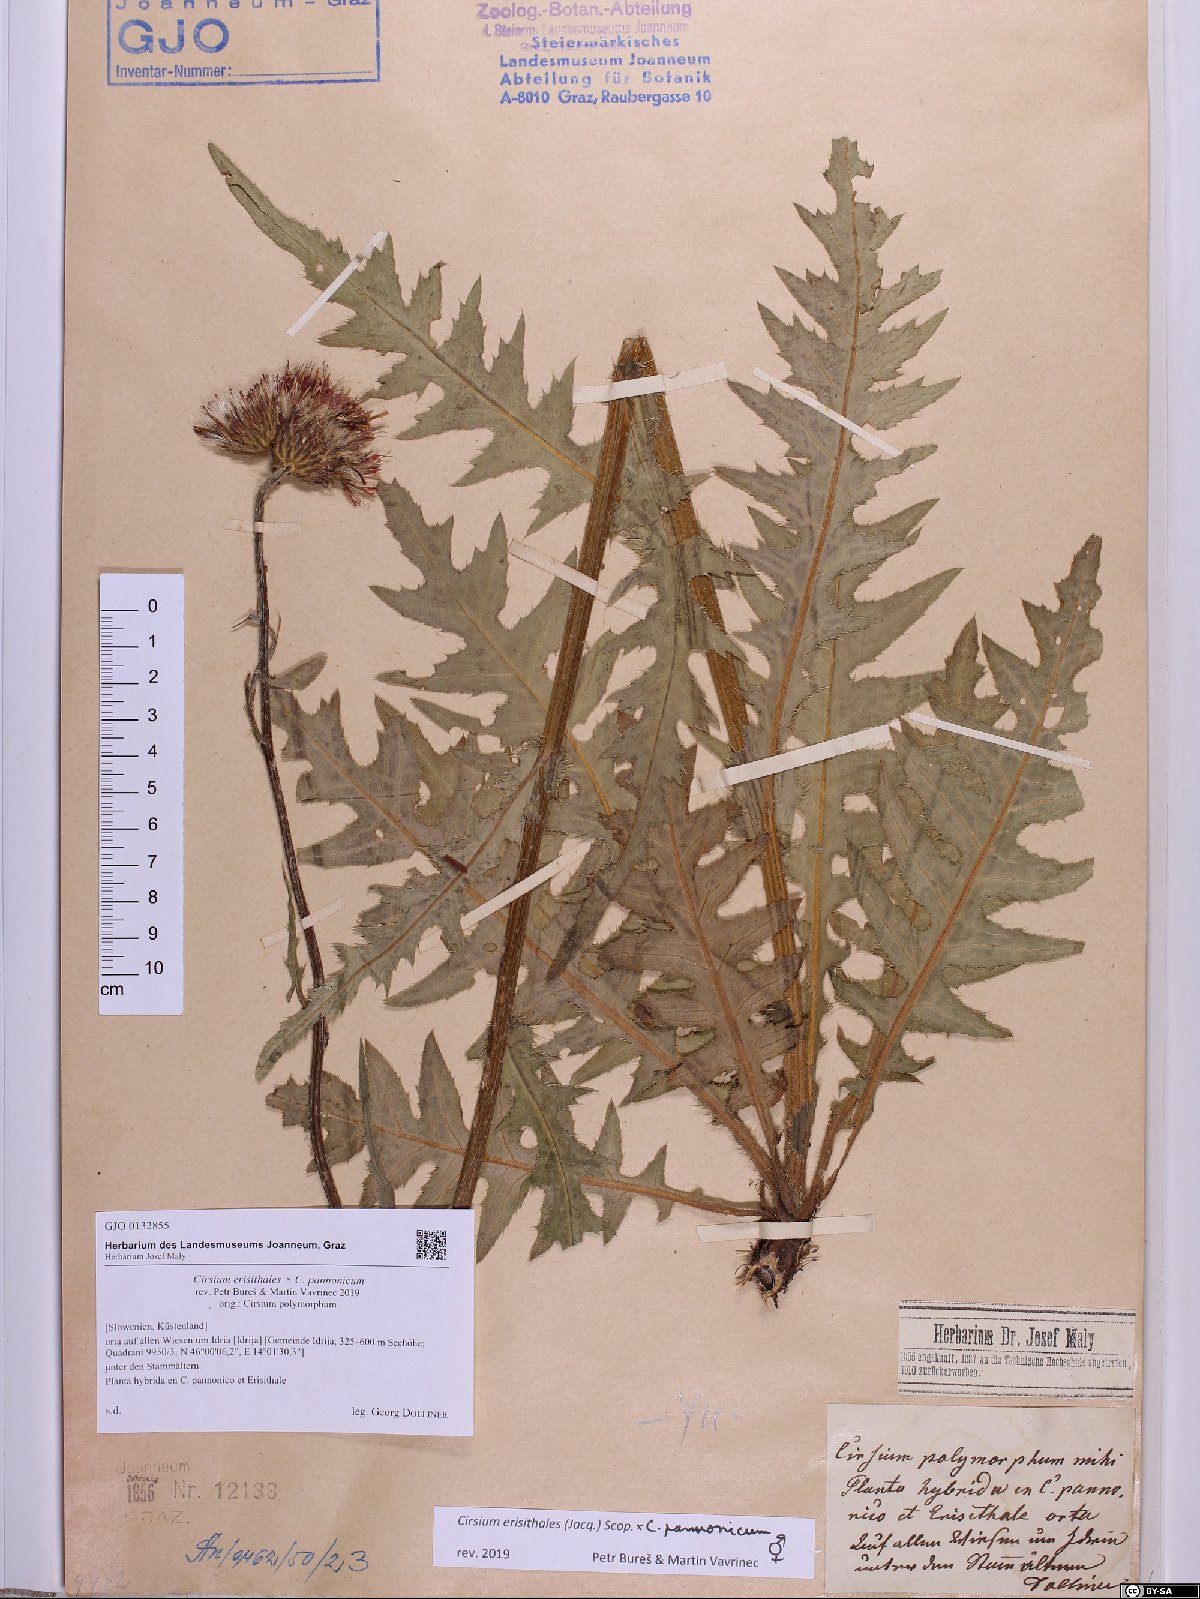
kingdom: Plantae
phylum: Tracheophyta
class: Magnoliopsida
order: Asterales
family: Asteraceae
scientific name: Asteraceae
